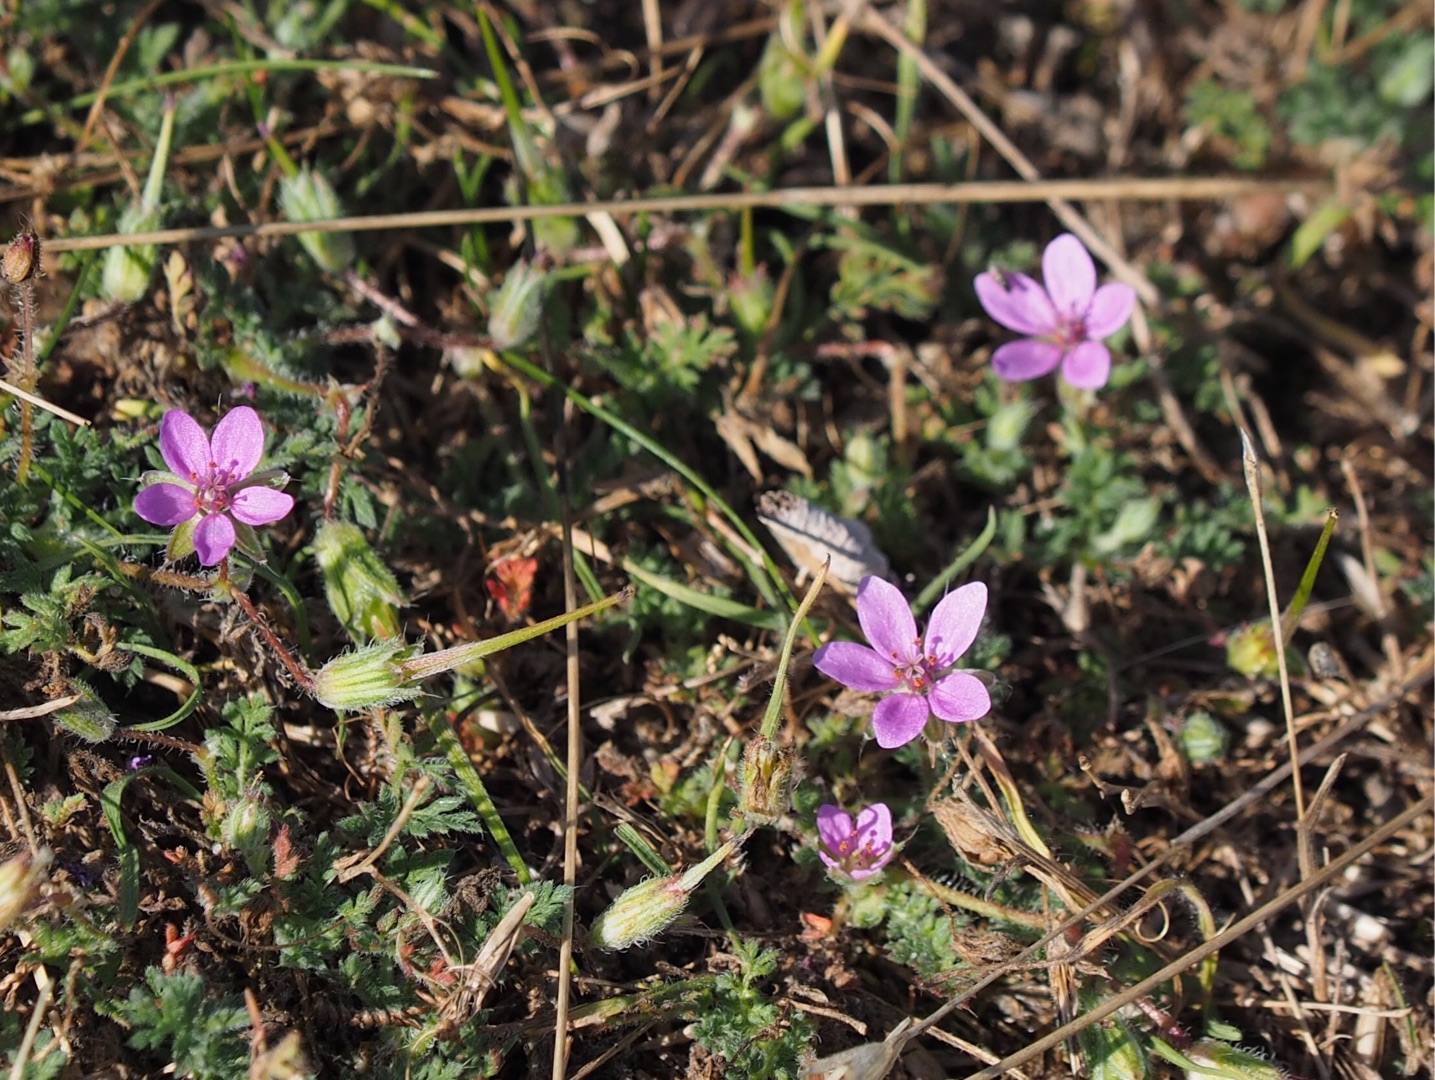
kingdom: Plantae
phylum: Tracheophyta
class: Magnoliopsida
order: Geraniales
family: Geraniaceae
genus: Erodium
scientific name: Erodium cicutarium
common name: Hejrenæb
